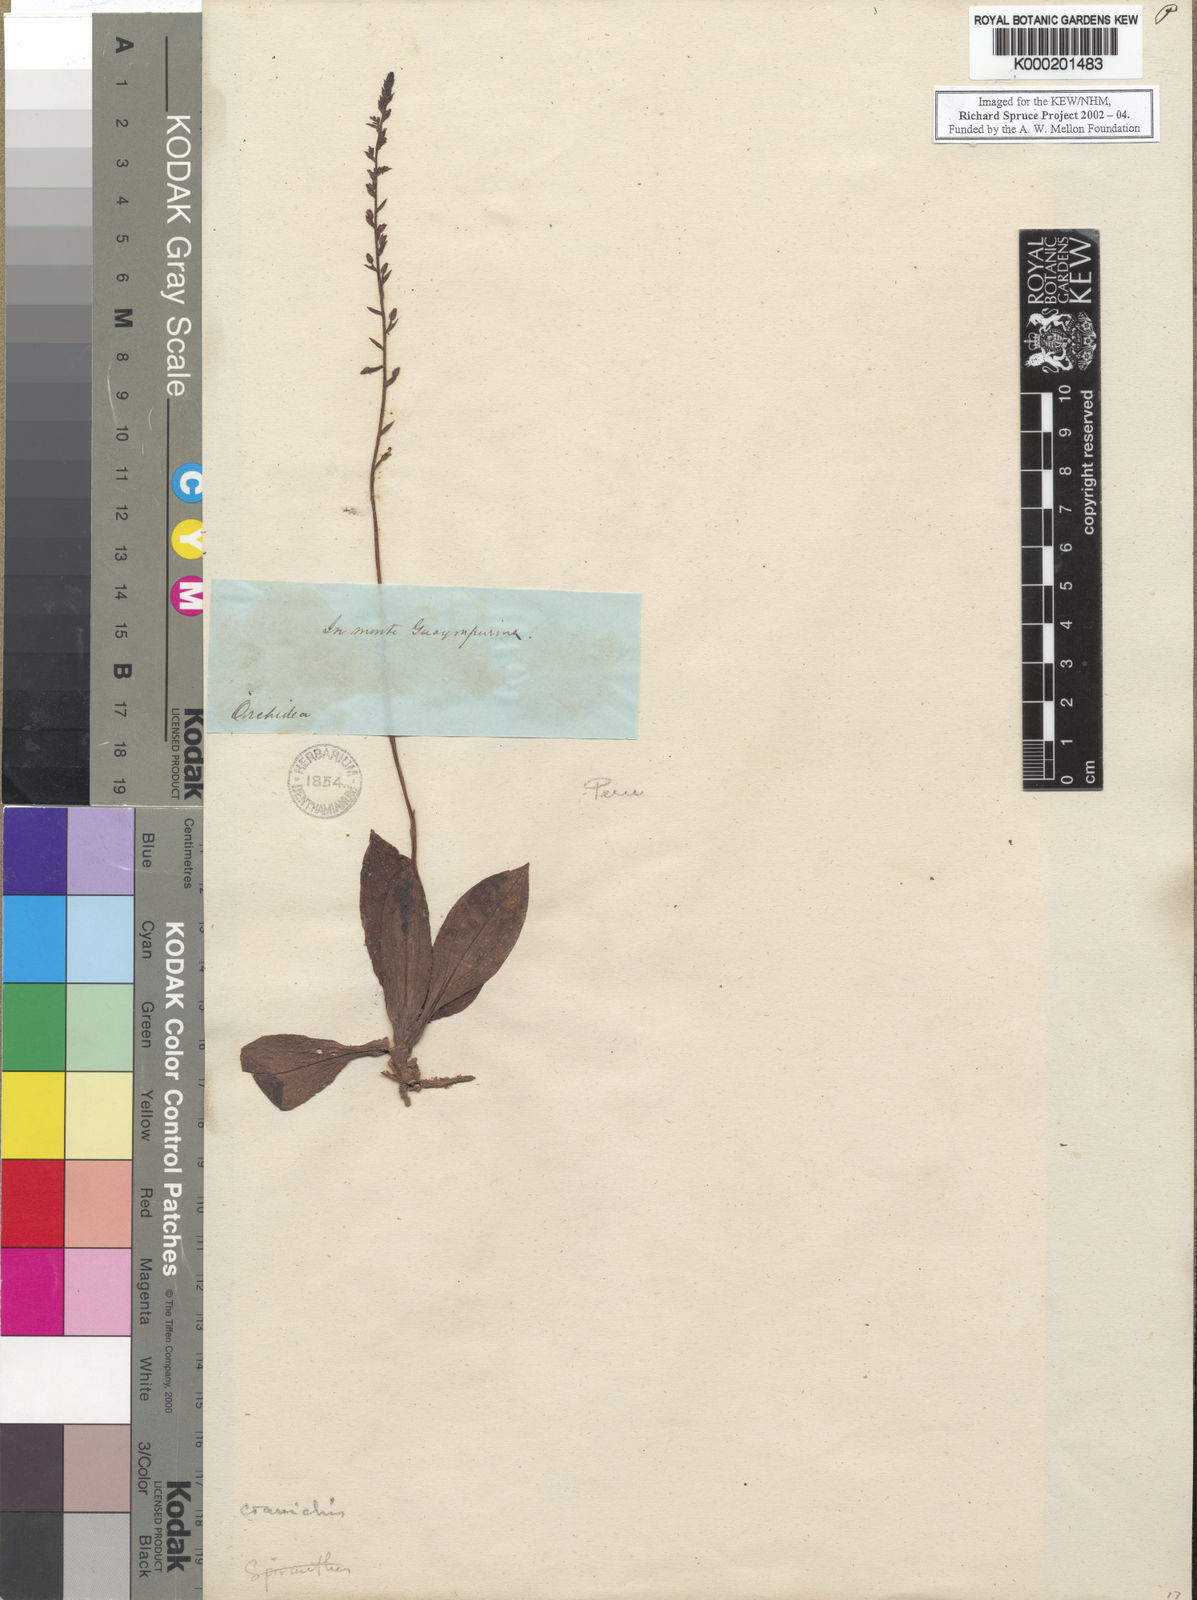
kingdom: Plantae
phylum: Tracheophyta
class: Liliopsida
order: Asparagales
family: Orchidaceae
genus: Cranichis
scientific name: Cranichis
